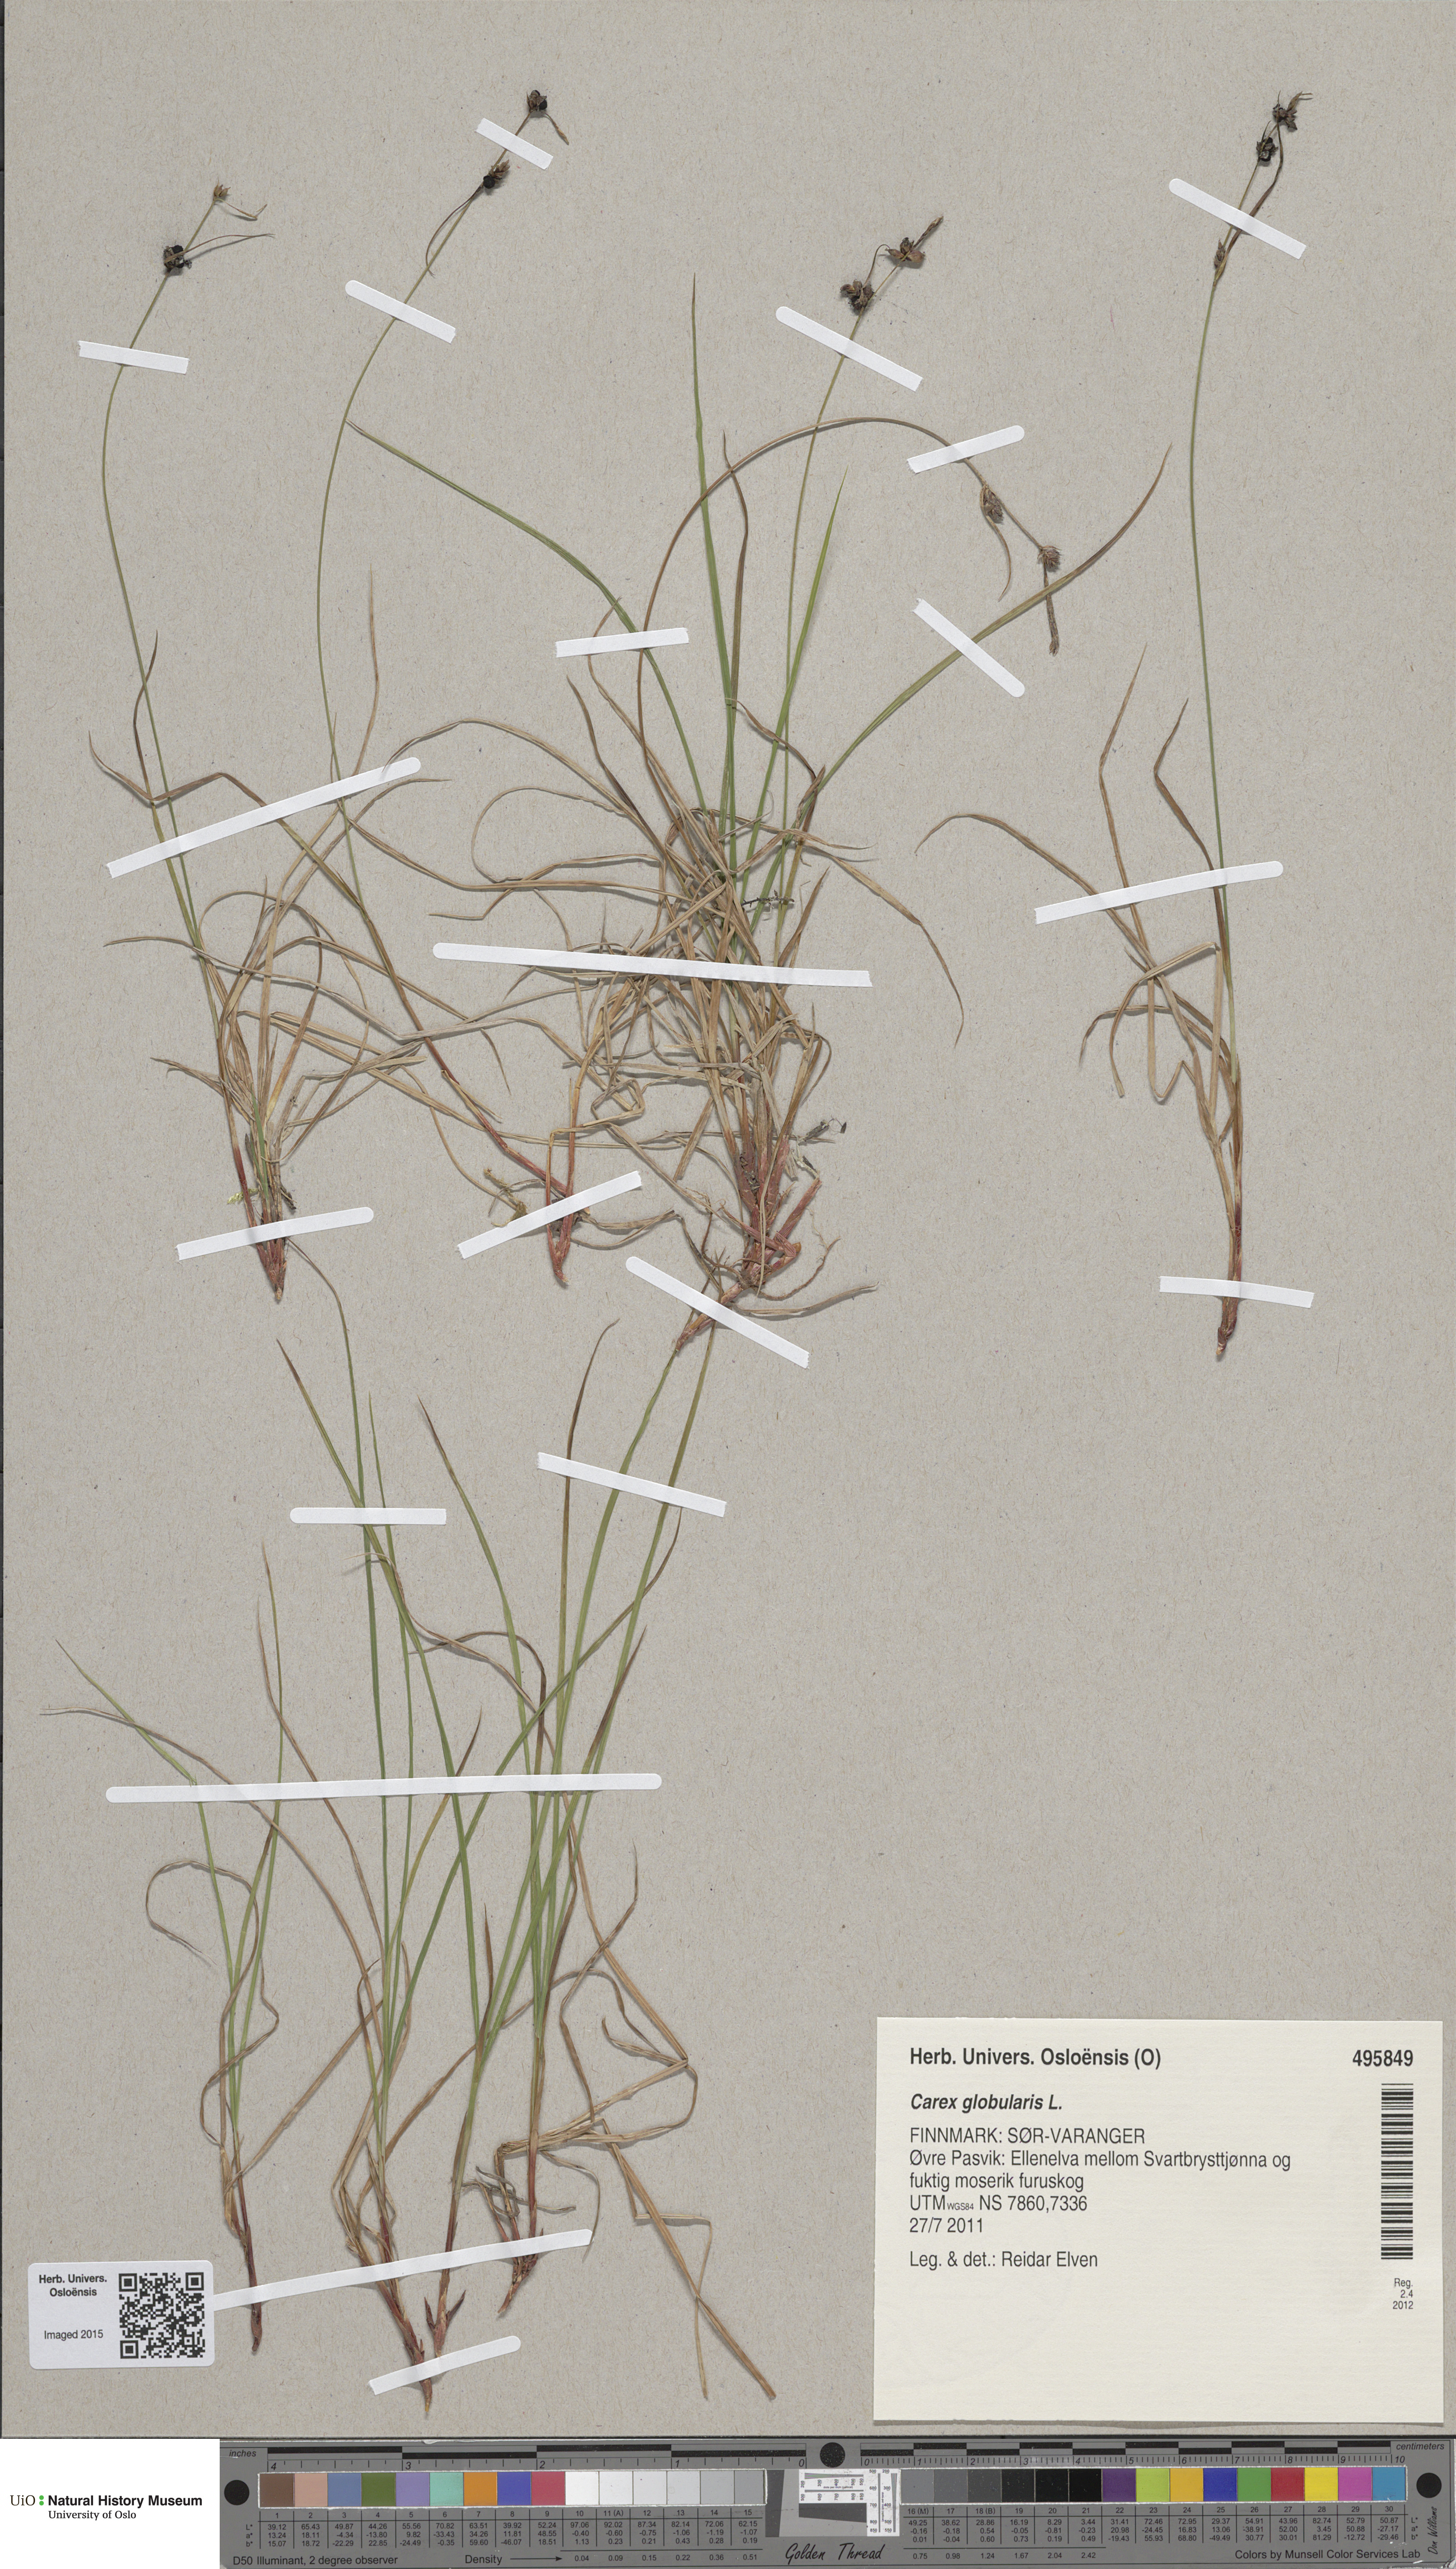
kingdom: Plantae
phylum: Tracheophyta
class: Liliopsida
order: Poales
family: Cyperaceae
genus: Carex
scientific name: Carex globularis
